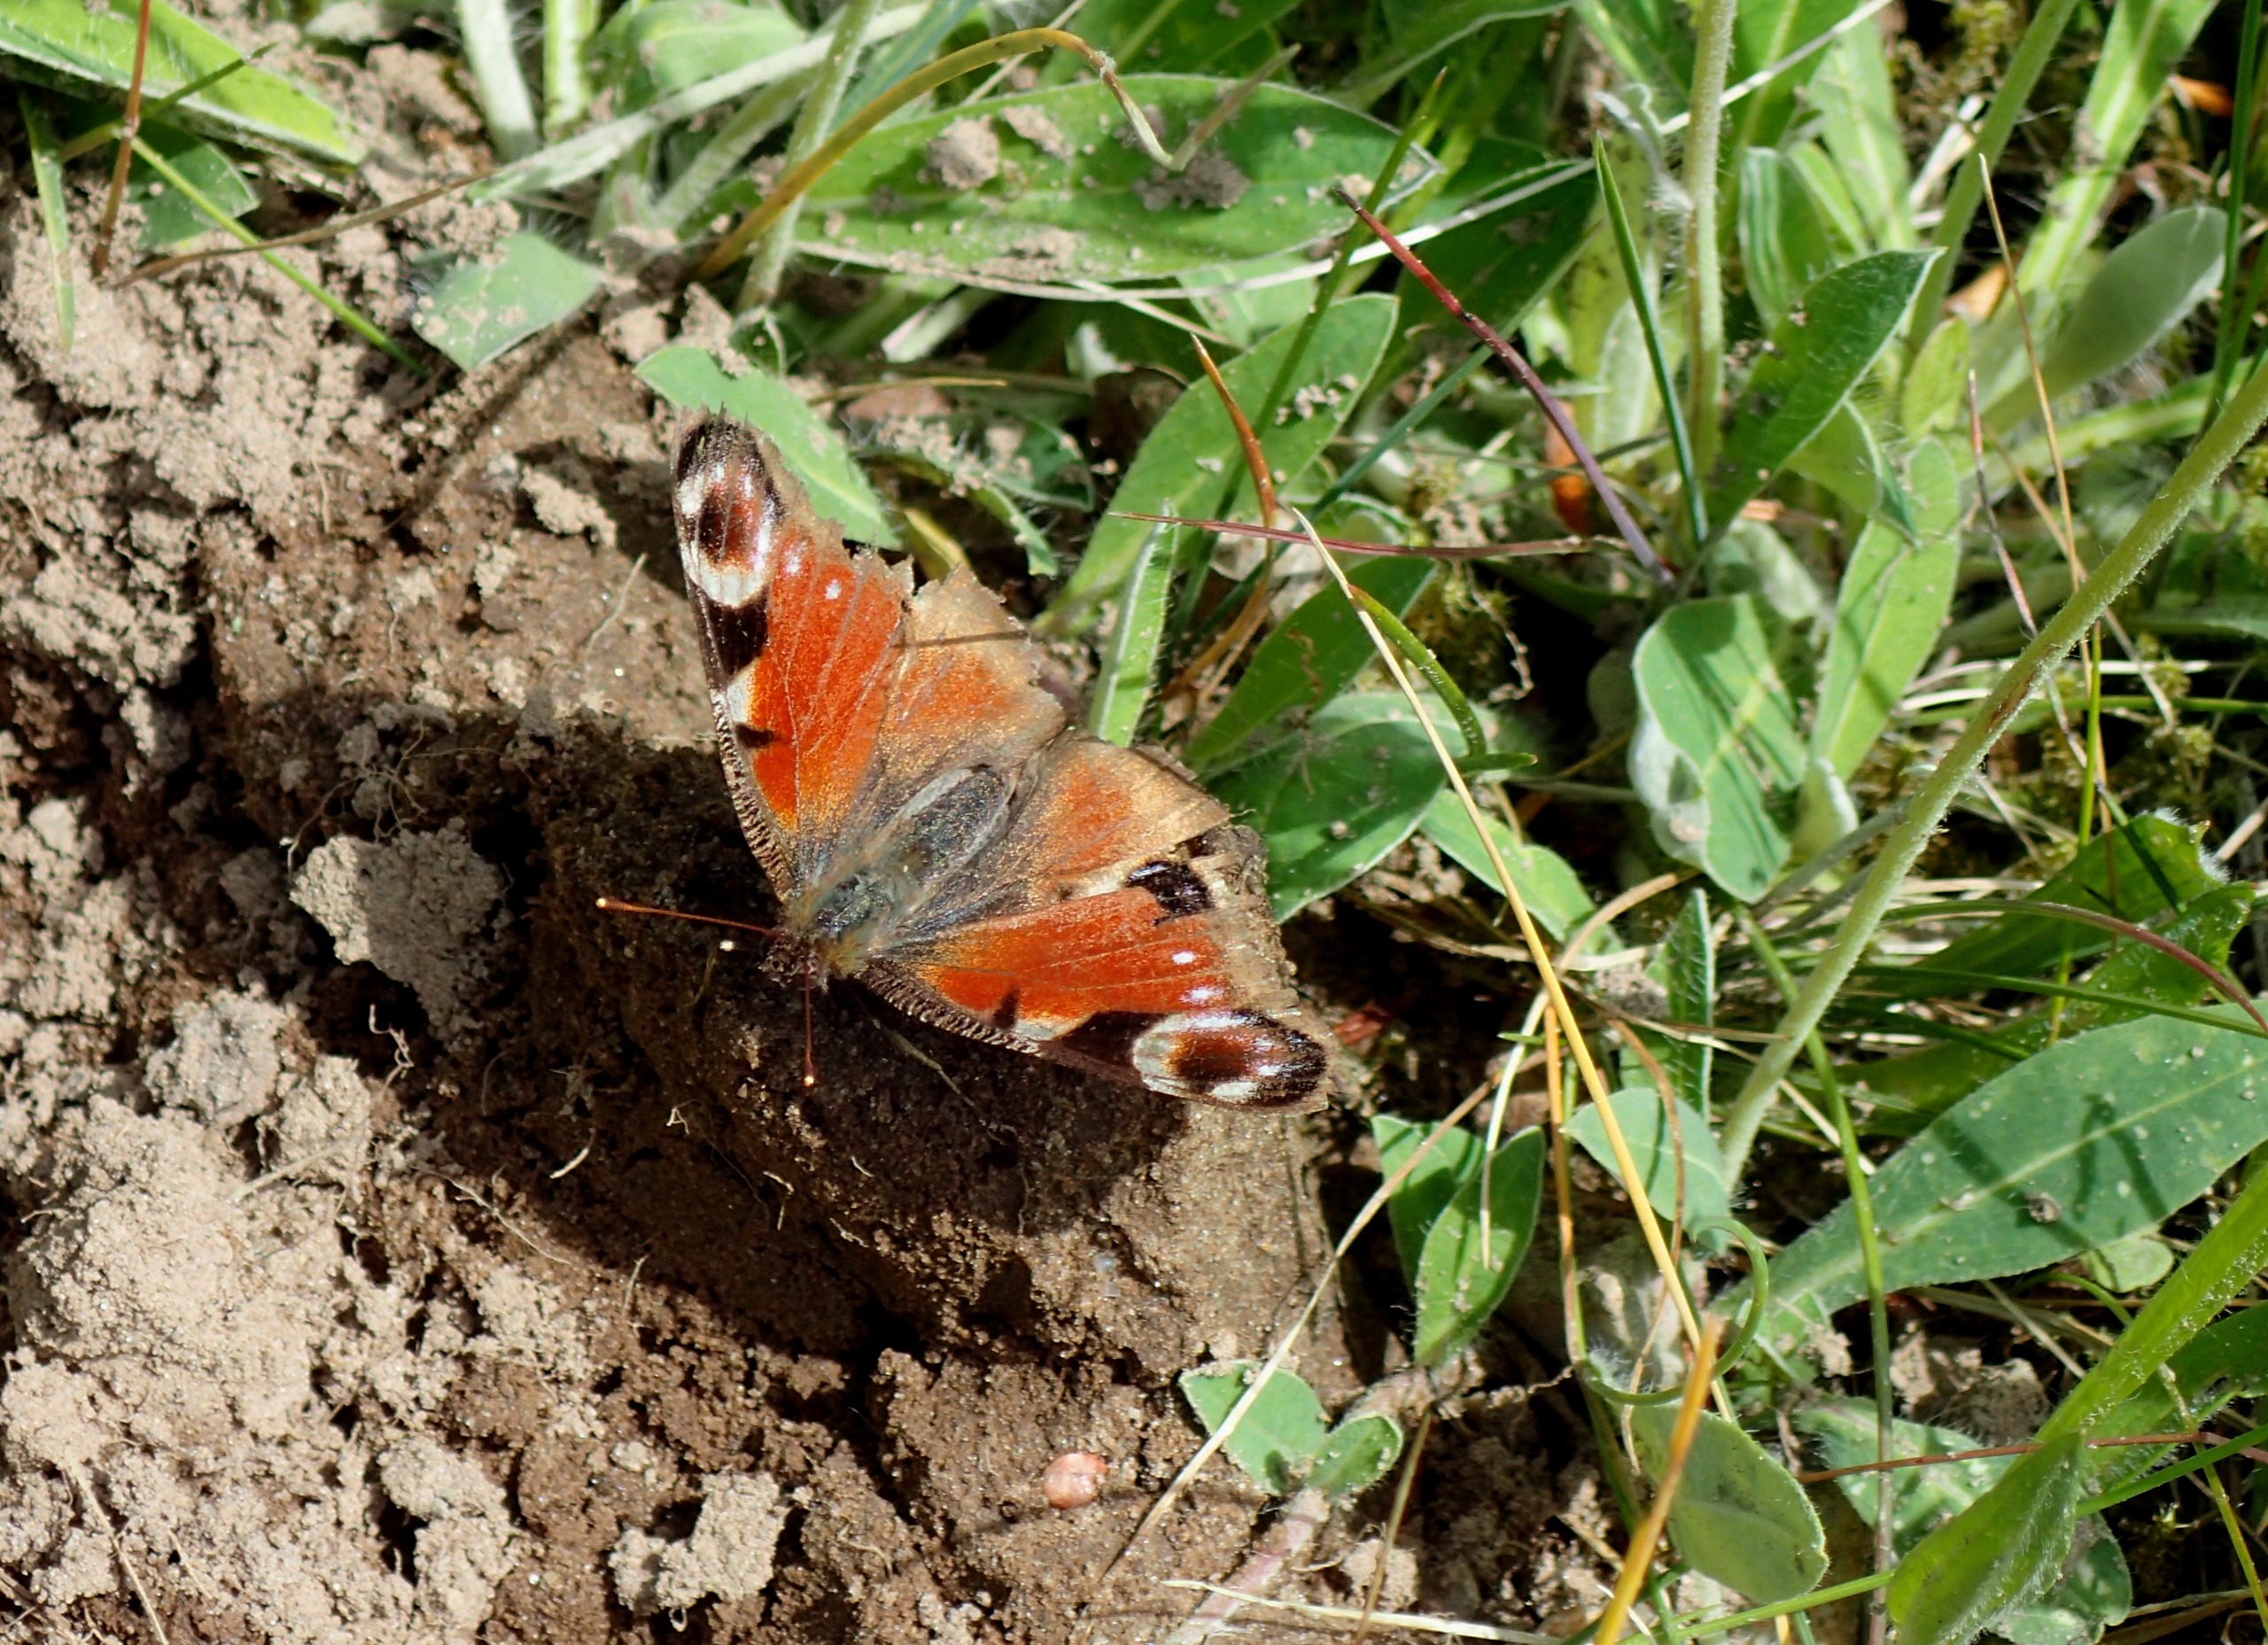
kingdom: Animalia
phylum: Arthropoda
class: Insecta
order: Lepidoptera
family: Nymphalidae
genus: Aglais
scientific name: Aglais io
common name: Dagpåfugleøje
